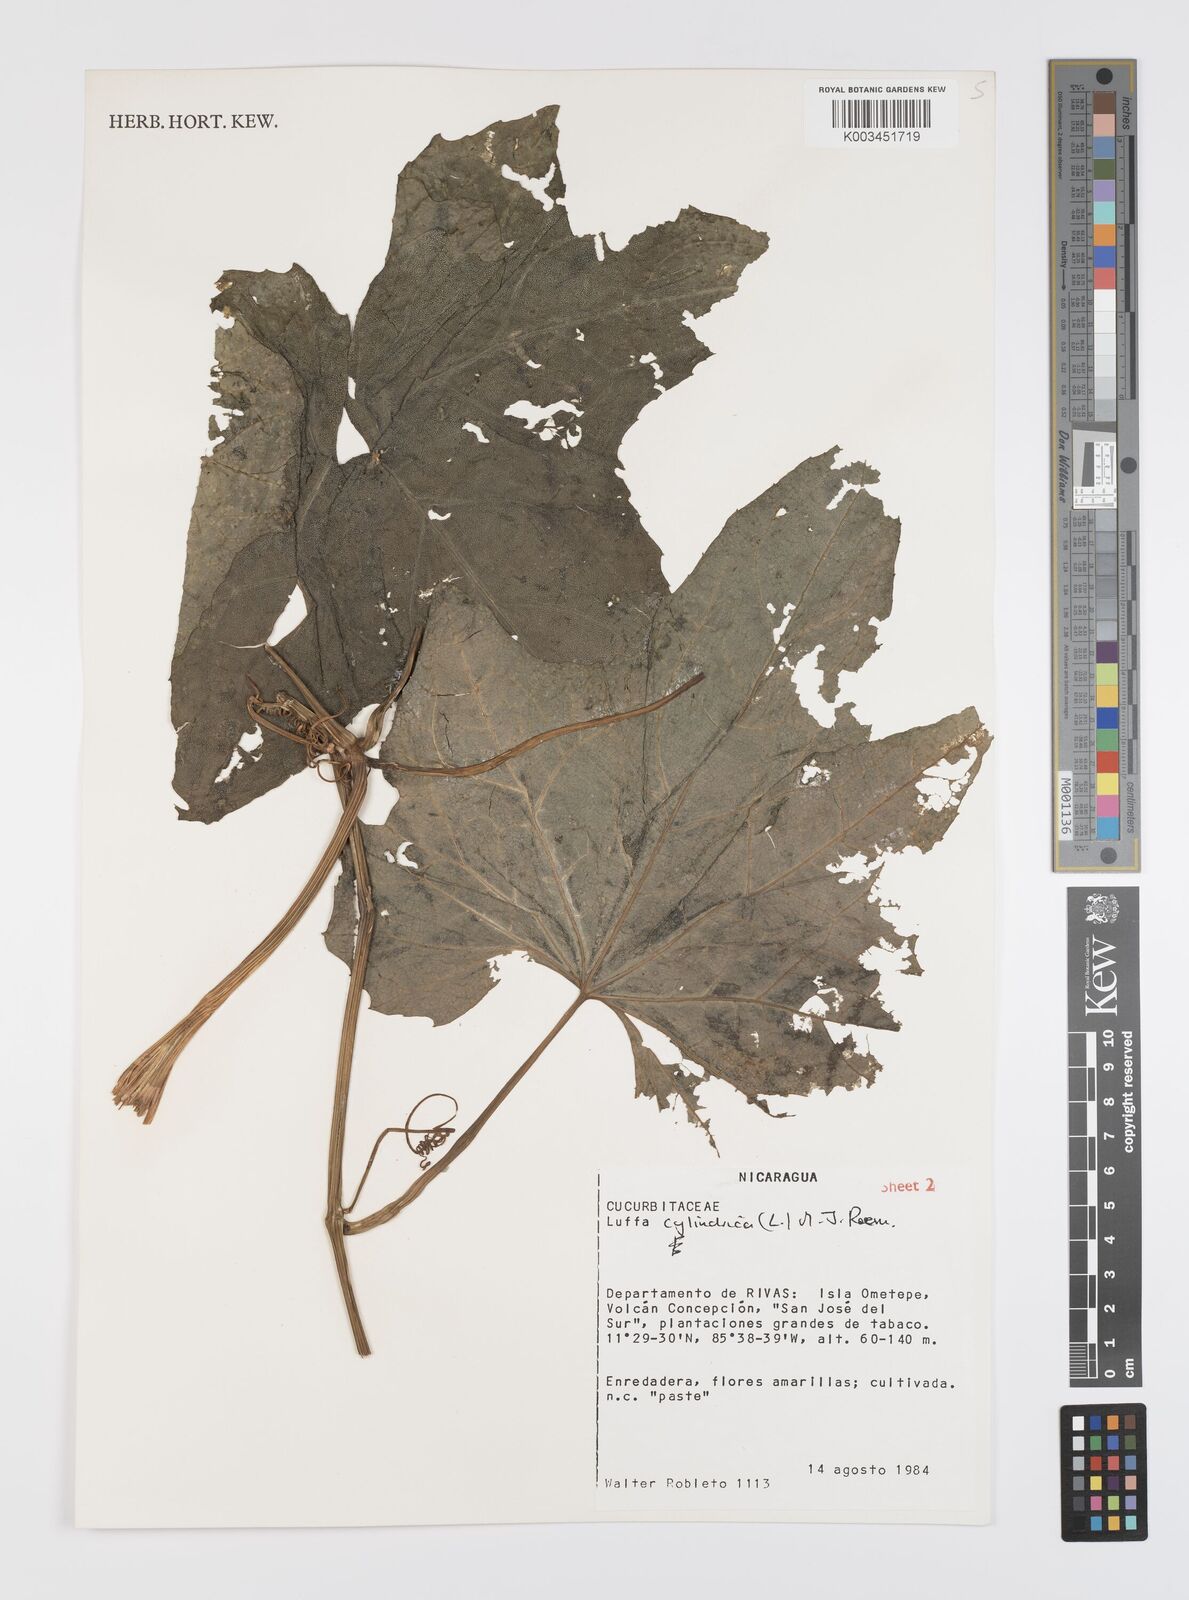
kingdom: Plantae
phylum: Tracheophyta
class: Magnoliopsida
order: Cucurbitales
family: Cucurbitaceae
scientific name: Cucurbitaceae
